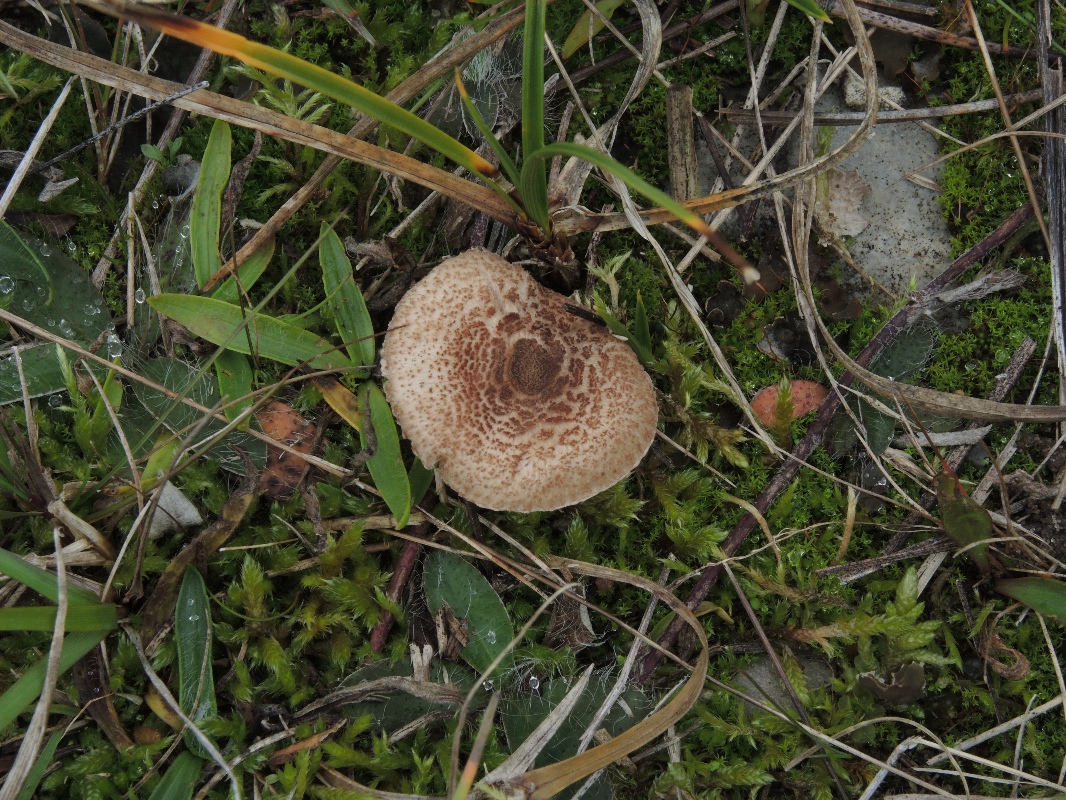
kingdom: Fungi
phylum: Basidiomycota
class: Agaricomycetes
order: Agaricales
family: Agaricaceae
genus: Lepiota
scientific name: Lepiota pseudolilacea
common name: gråbrun parasolhat
